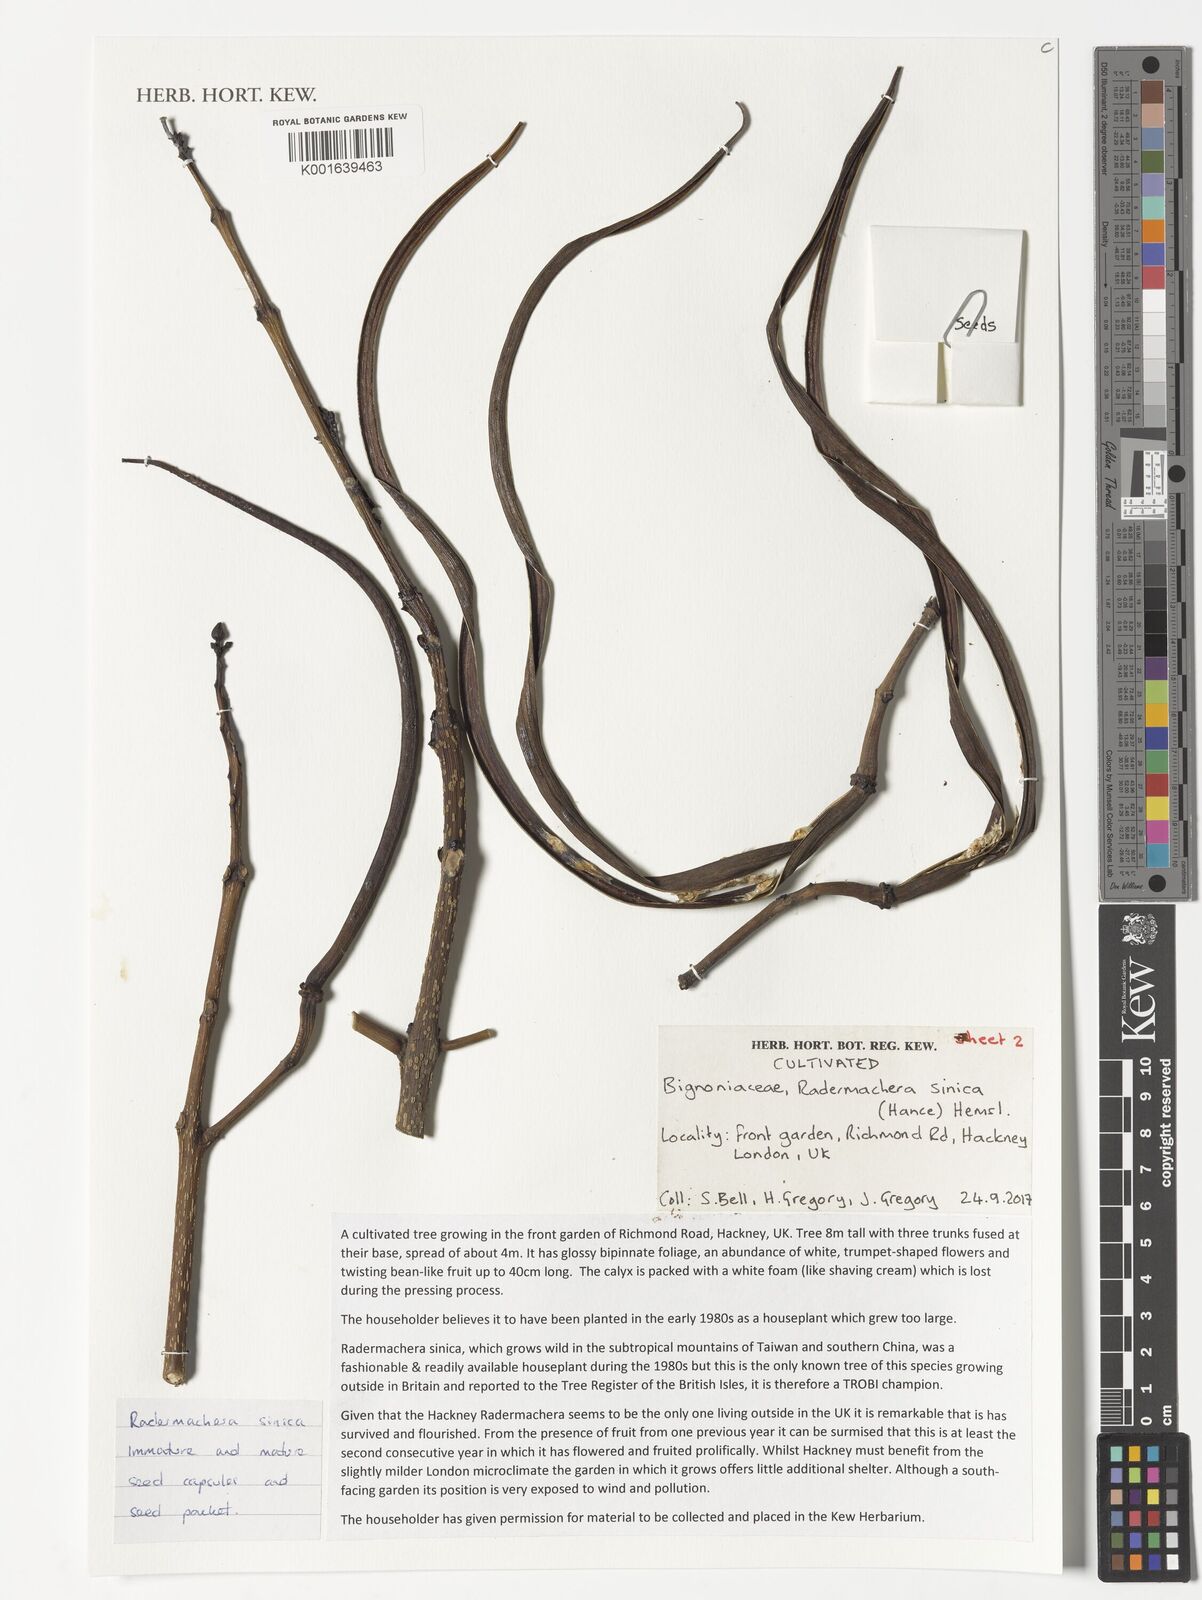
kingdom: Plantae
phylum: Tracheophyta
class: Magnoliopsida
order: Lamiales
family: Bignoniaceae
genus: Radermachera
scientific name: Radermachera sinica
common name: China doll plant
